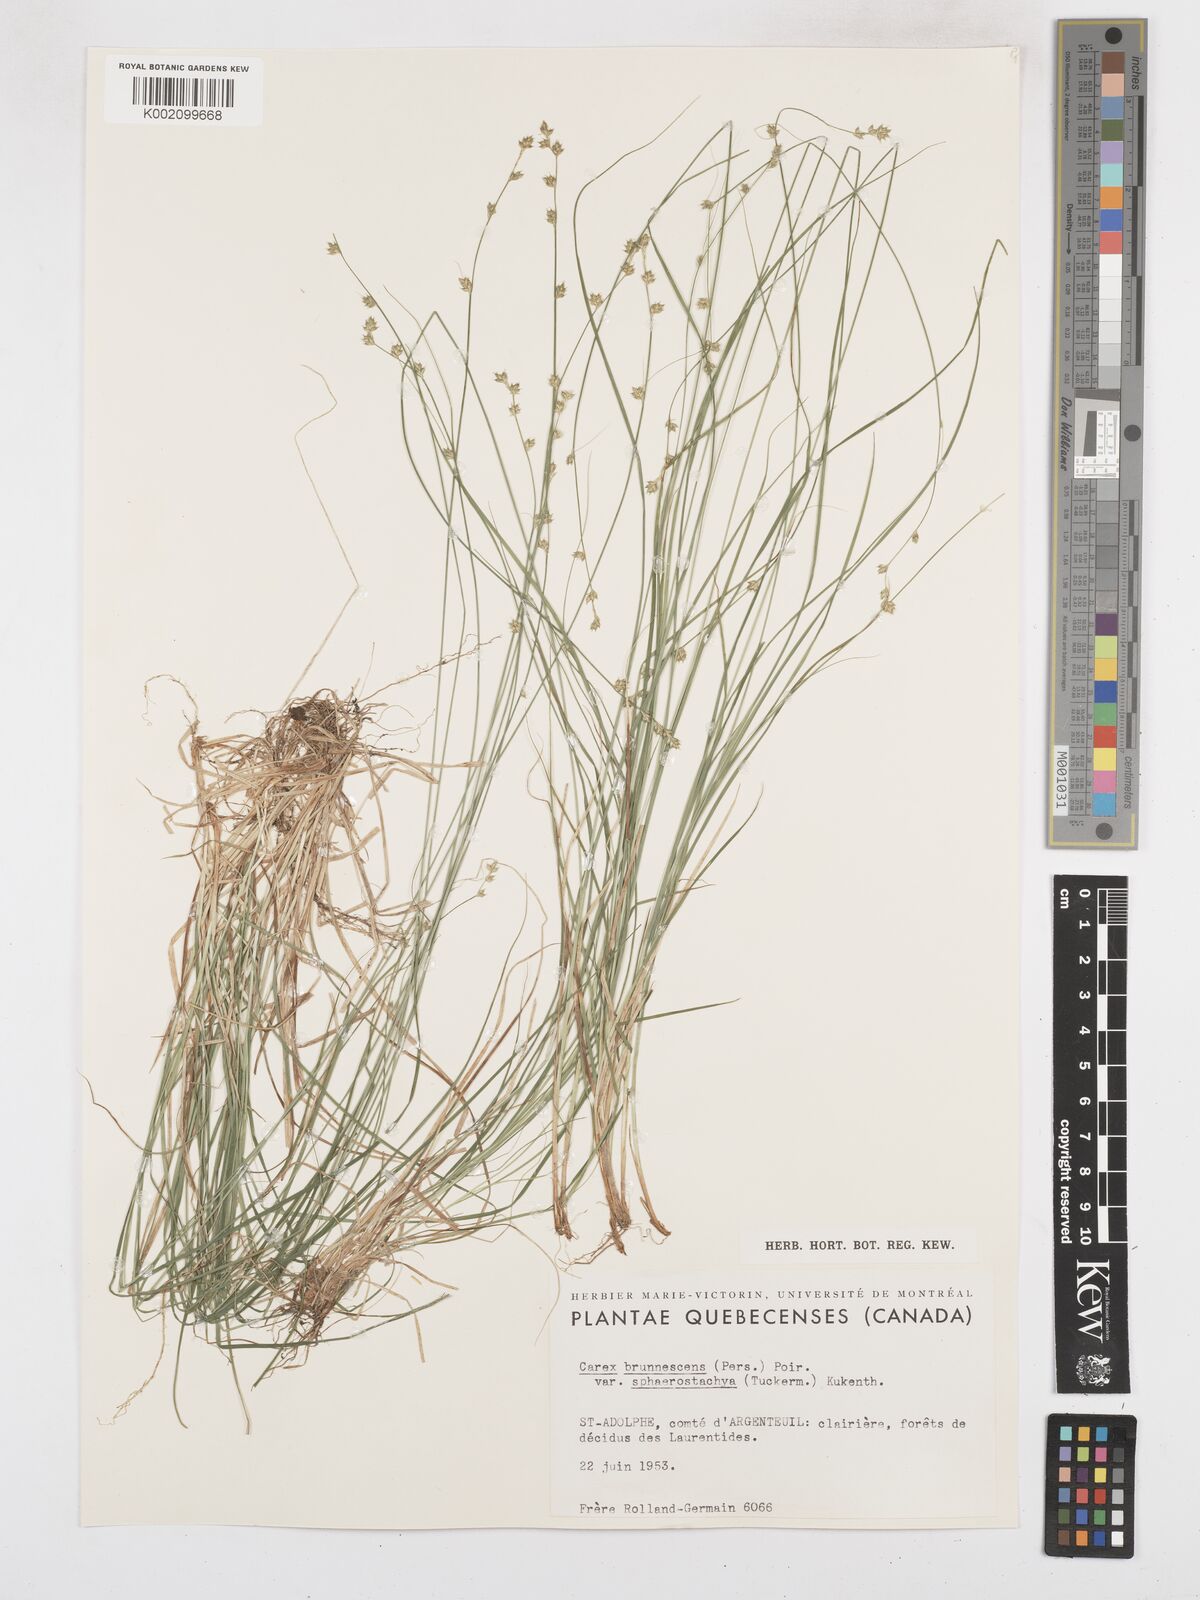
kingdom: Plantae
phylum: Tracheophyta
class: Liliopsida
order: Poales
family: Cyperaceae
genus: Carex
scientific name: Carex brunnescens
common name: Brown sedge
